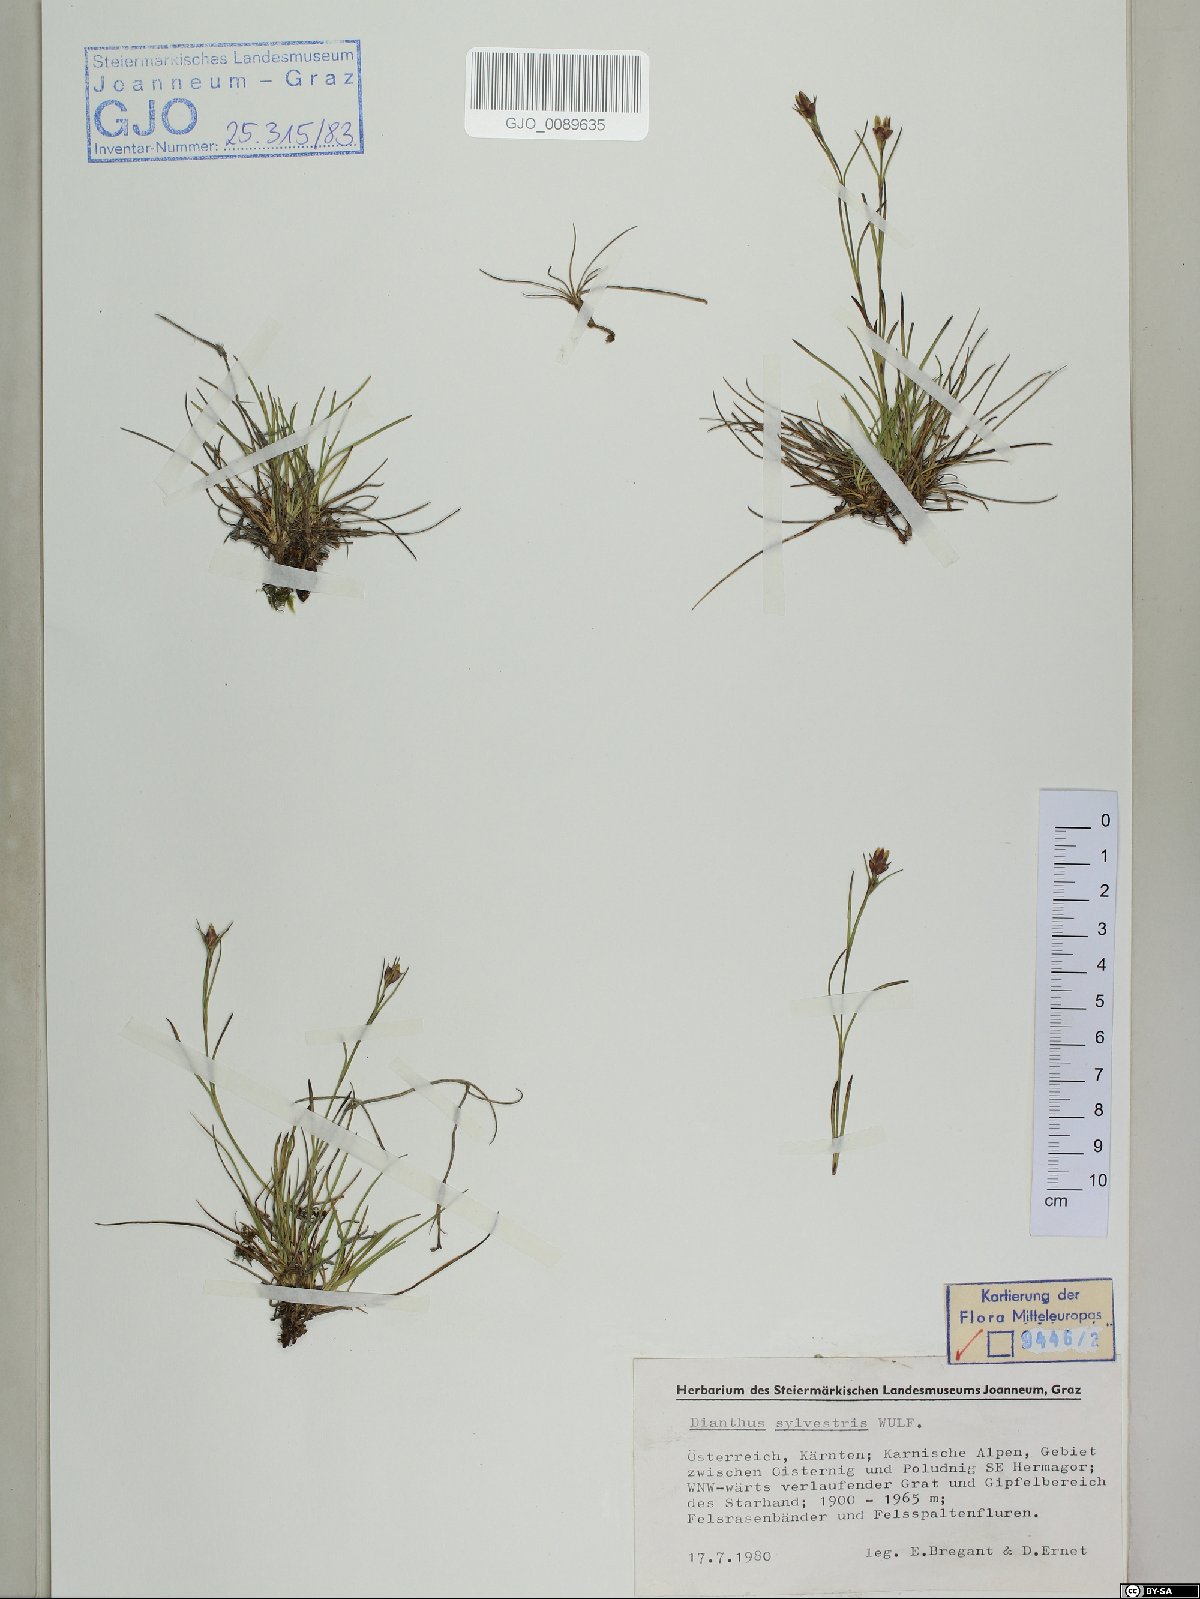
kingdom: Plantae
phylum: Tracheophyta
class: Magnoliopsida
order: Caryophyllales
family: Caryophyllaceae
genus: Dianthus
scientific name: Dianthus sylvestris
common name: Wood pink
